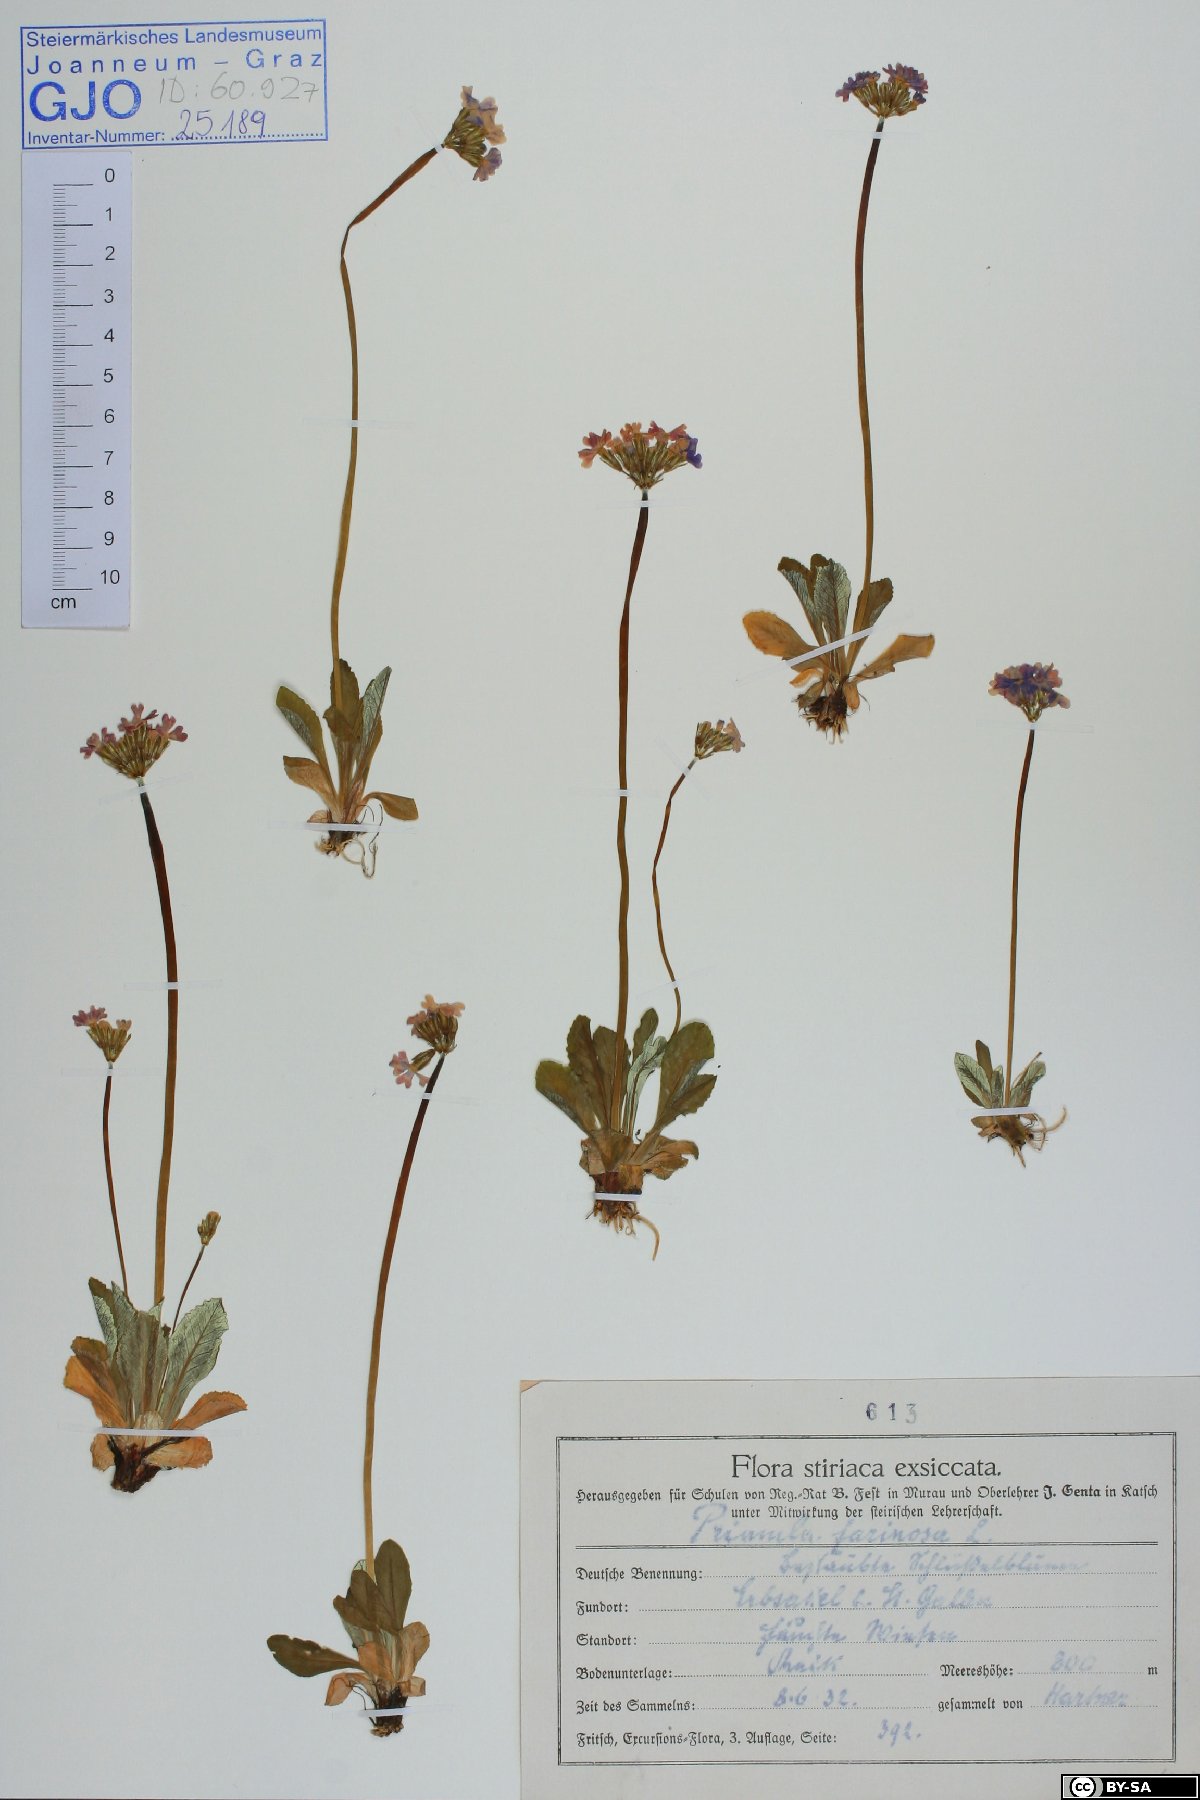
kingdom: Plantae
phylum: Tracheophyta
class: Magnoliopsida
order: Ericales
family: Primulaceae
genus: Primula
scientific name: Primula farinosa
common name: Bird's-eye primrose
